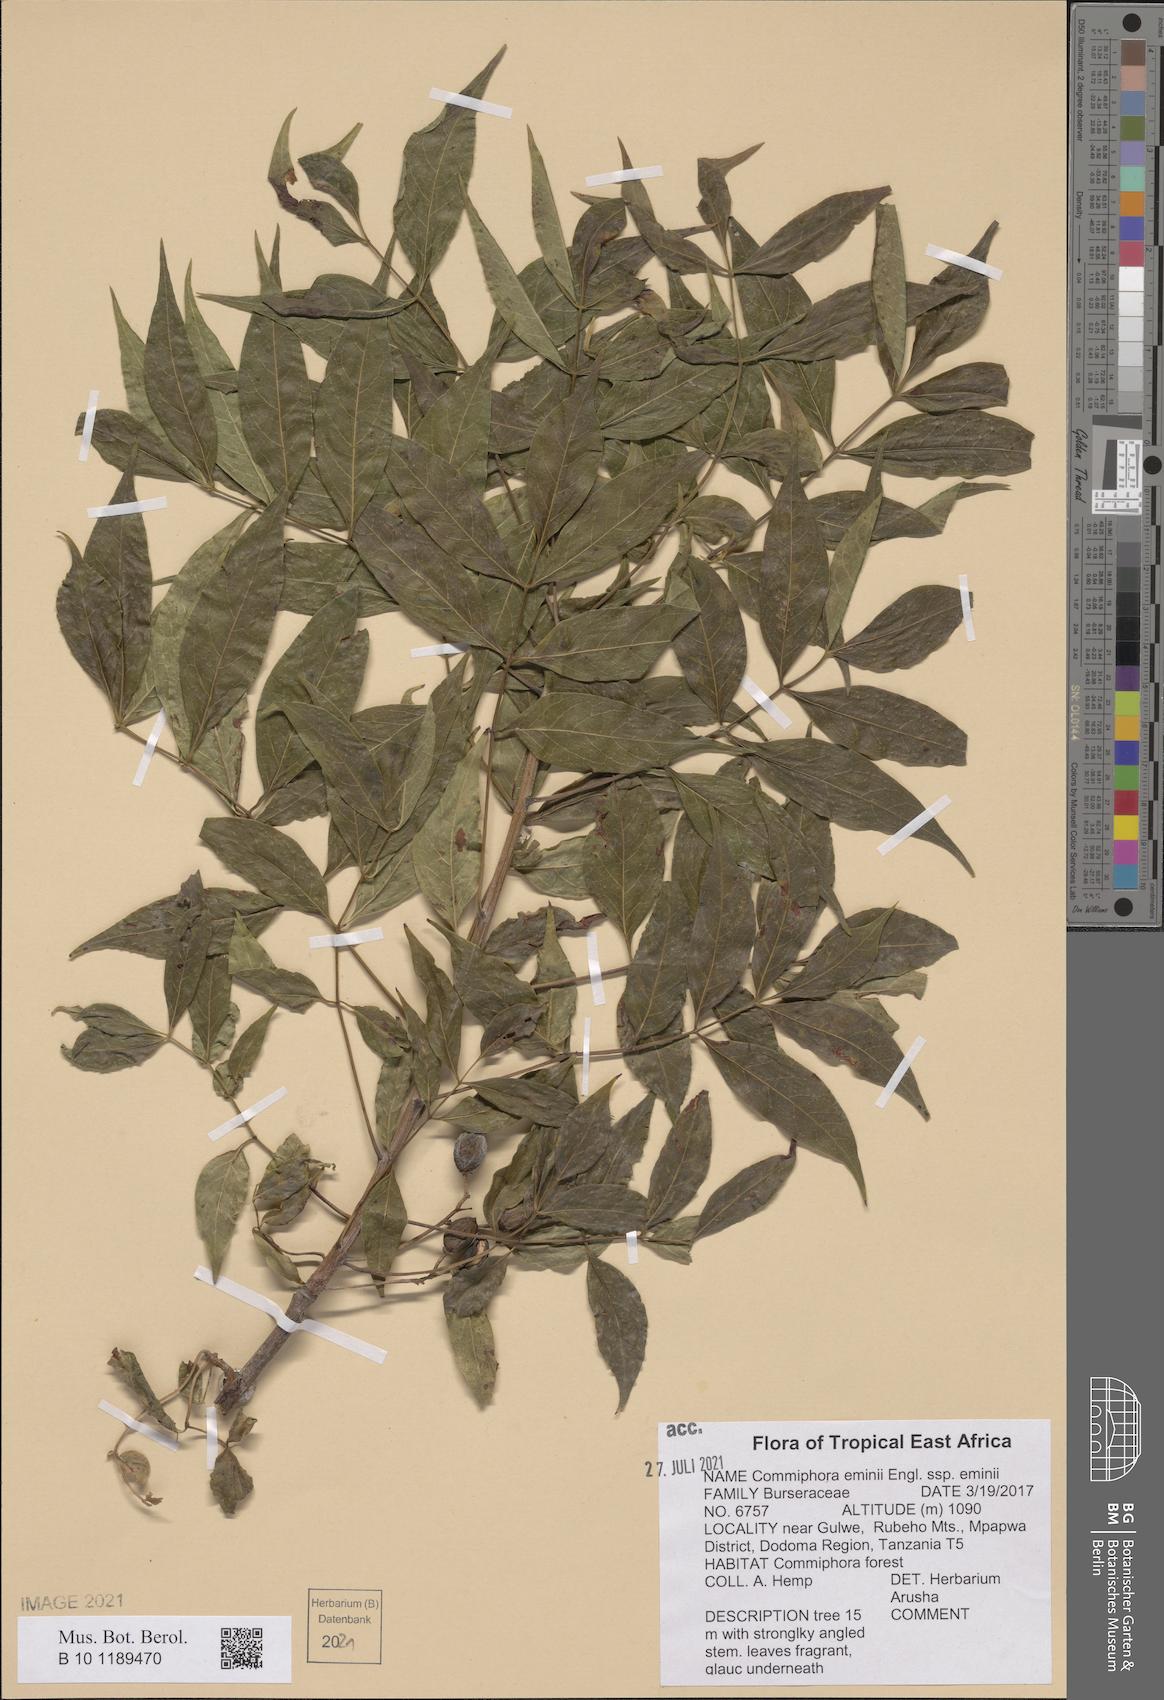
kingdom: Plantae
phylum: Tracheophyta
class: Magnoliopsida
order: Sapindales
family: Burseraceae
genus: Commiphora
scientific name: Commiphora eminii
